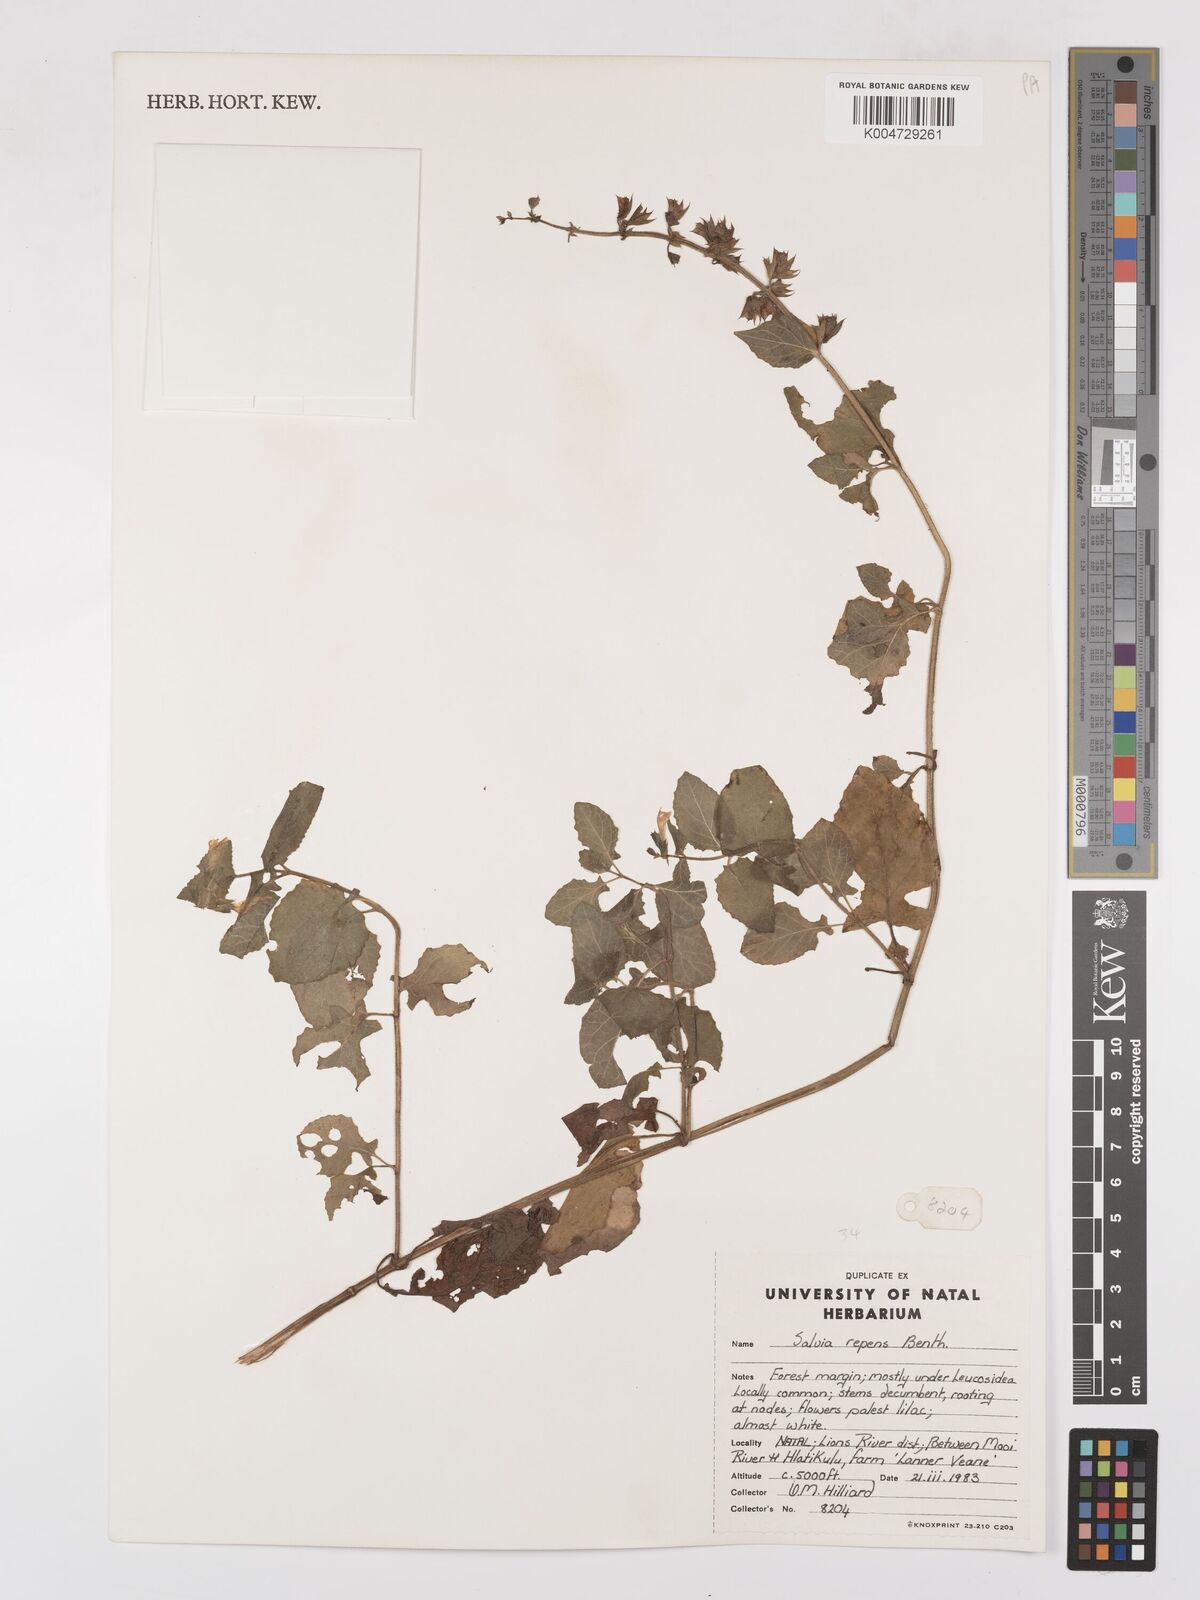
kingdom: Plantae
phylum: Tracheophyta
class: Magnoliopsida
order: Lamiales
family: Lamiaceae
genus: Salvia
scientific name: Salvia repens
